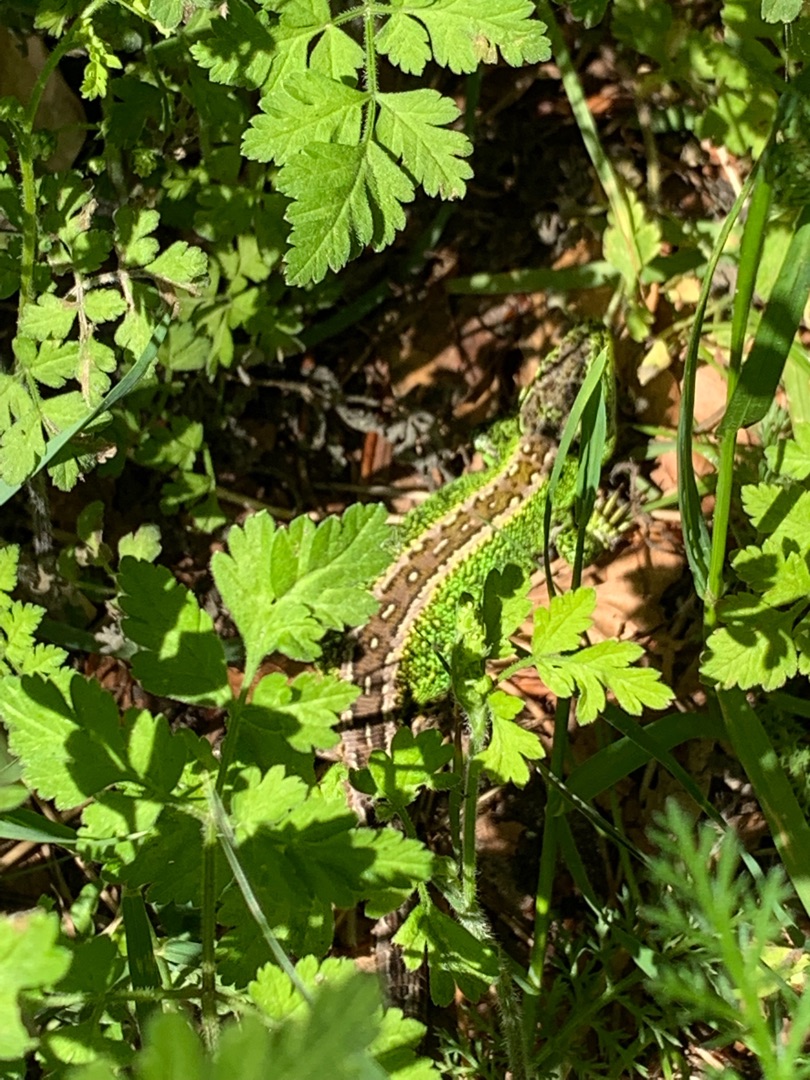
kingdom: Animalia
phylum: Chordata
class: Squamata
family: Lacertidae
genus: Lacerta
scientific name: Lacerta agilis
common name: Markfirben
